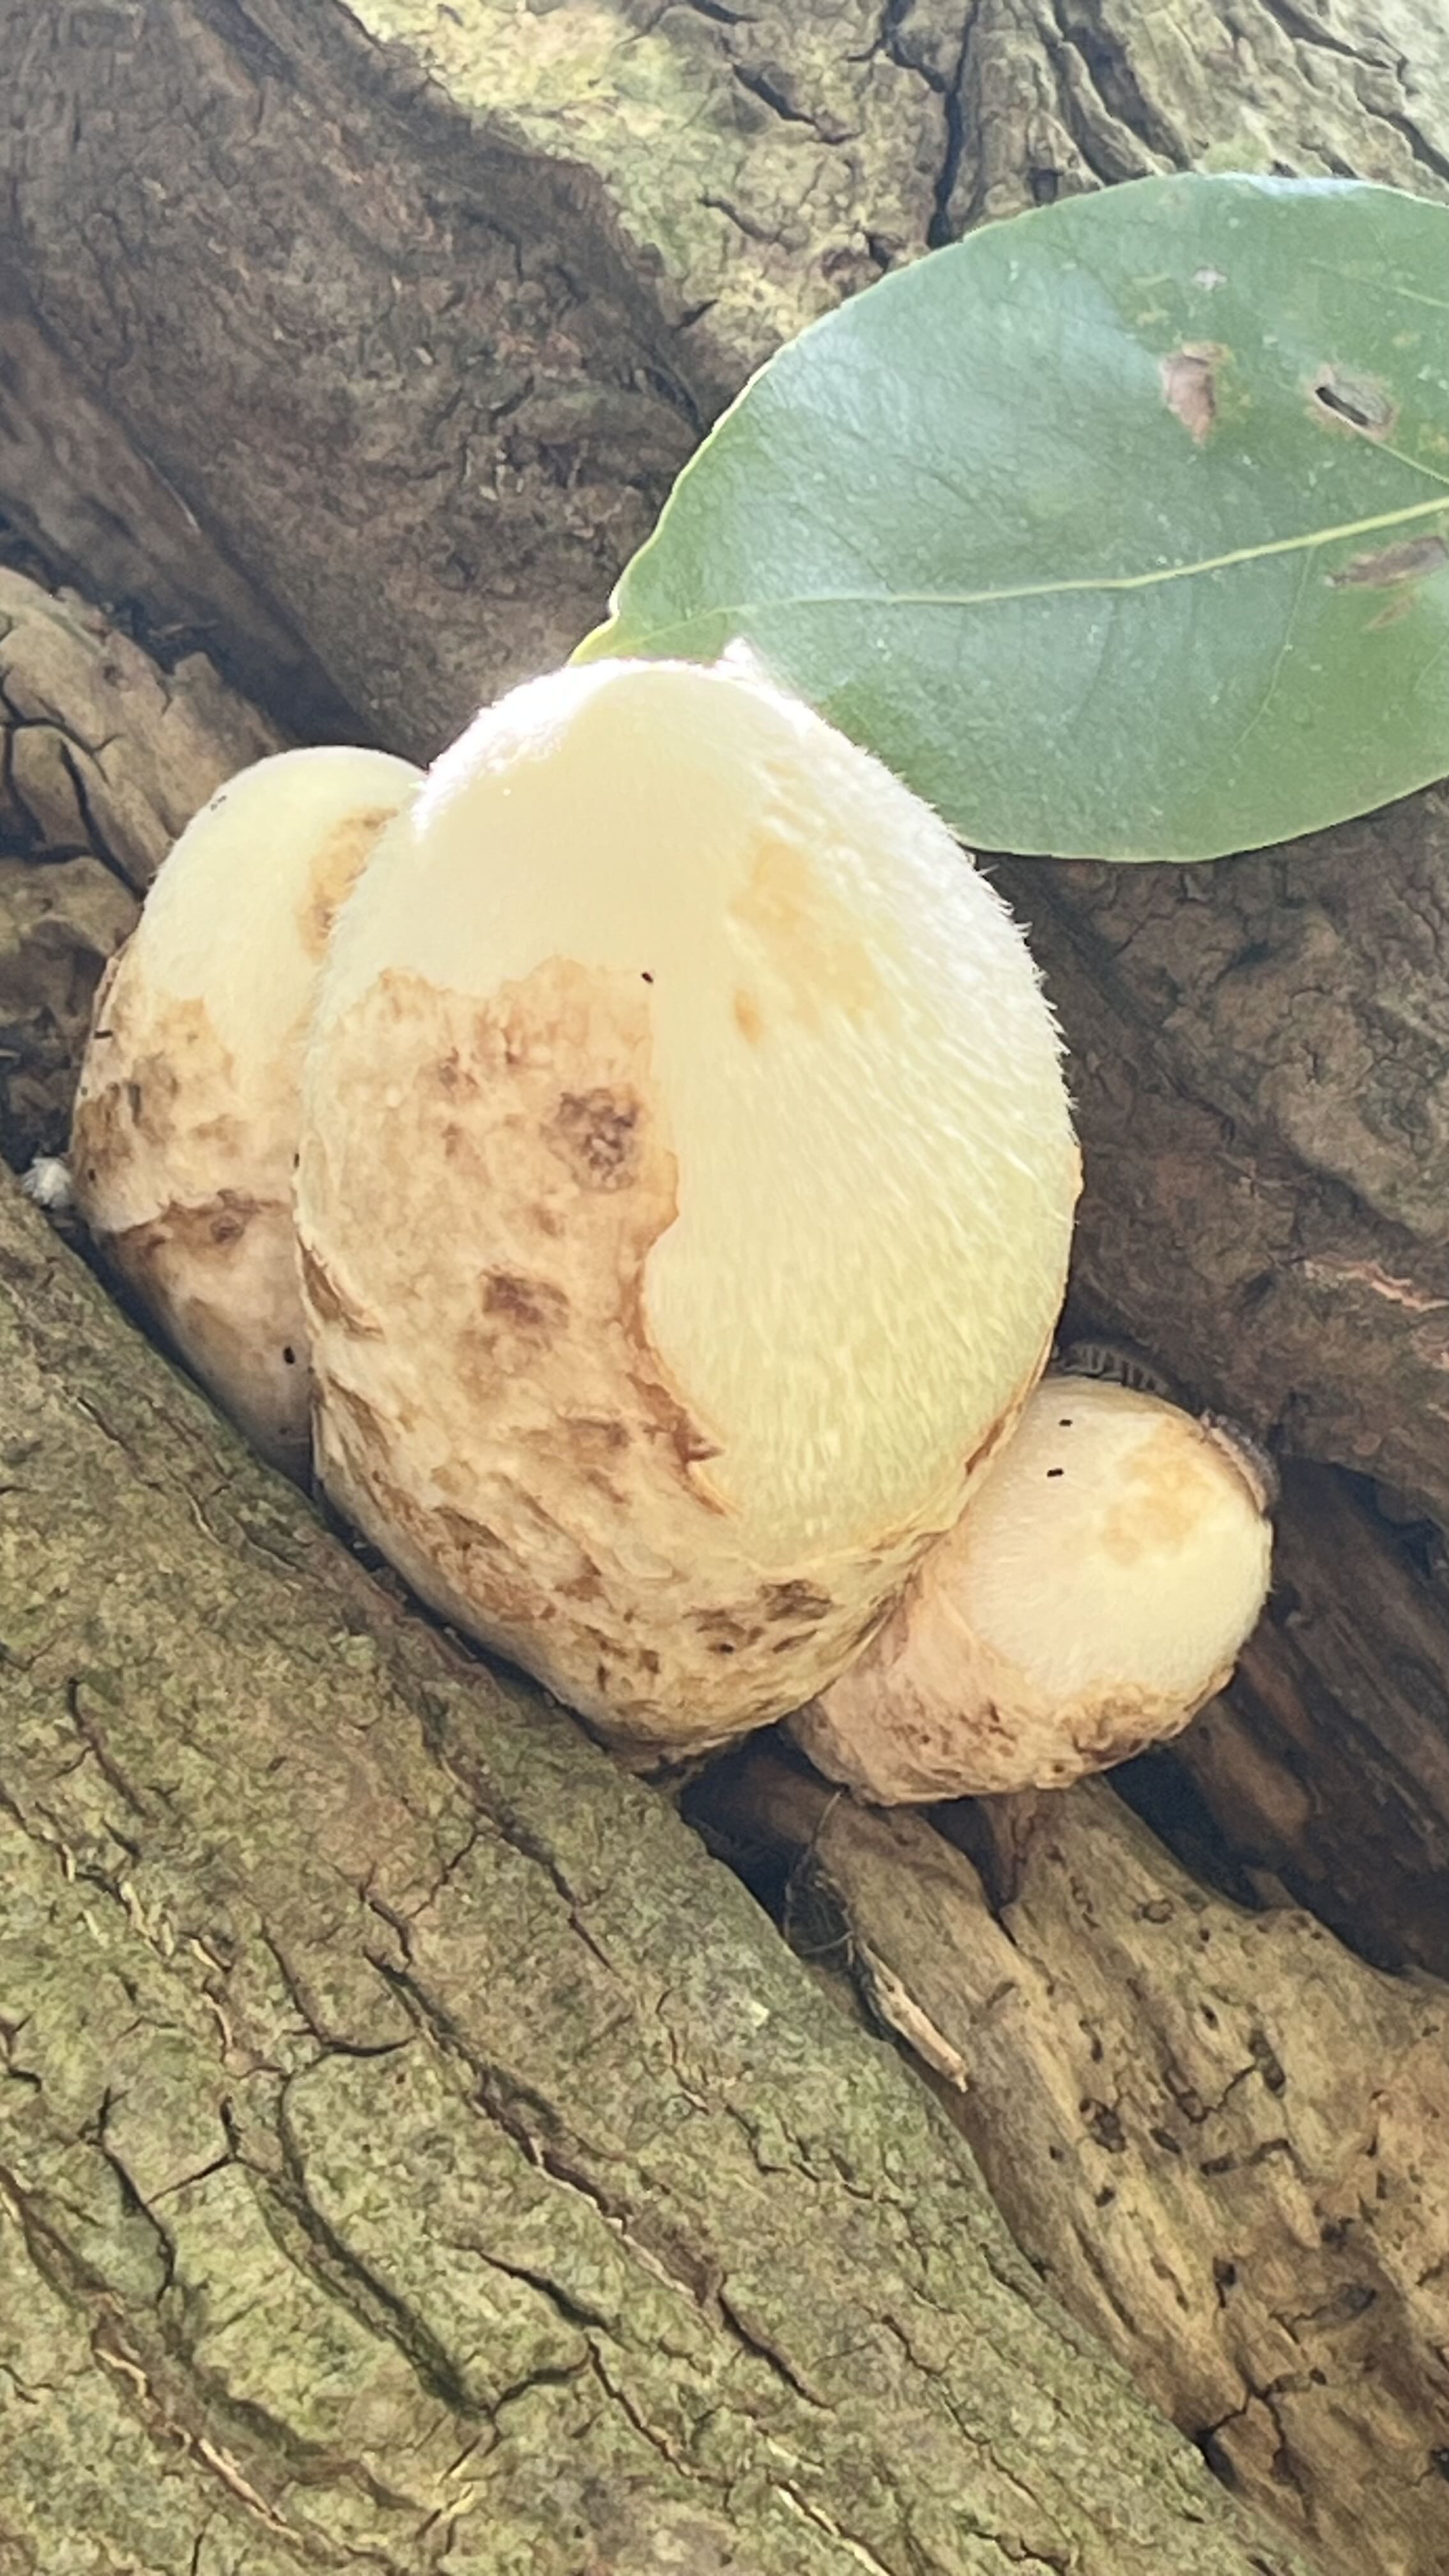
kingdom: Fungi
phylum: Basidiomycota
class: Agaricomycetes
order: Agaricales
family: Pluteaceae
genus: Volvariella
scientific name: Volvariella bombycina
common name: silkehåret posesvamp
